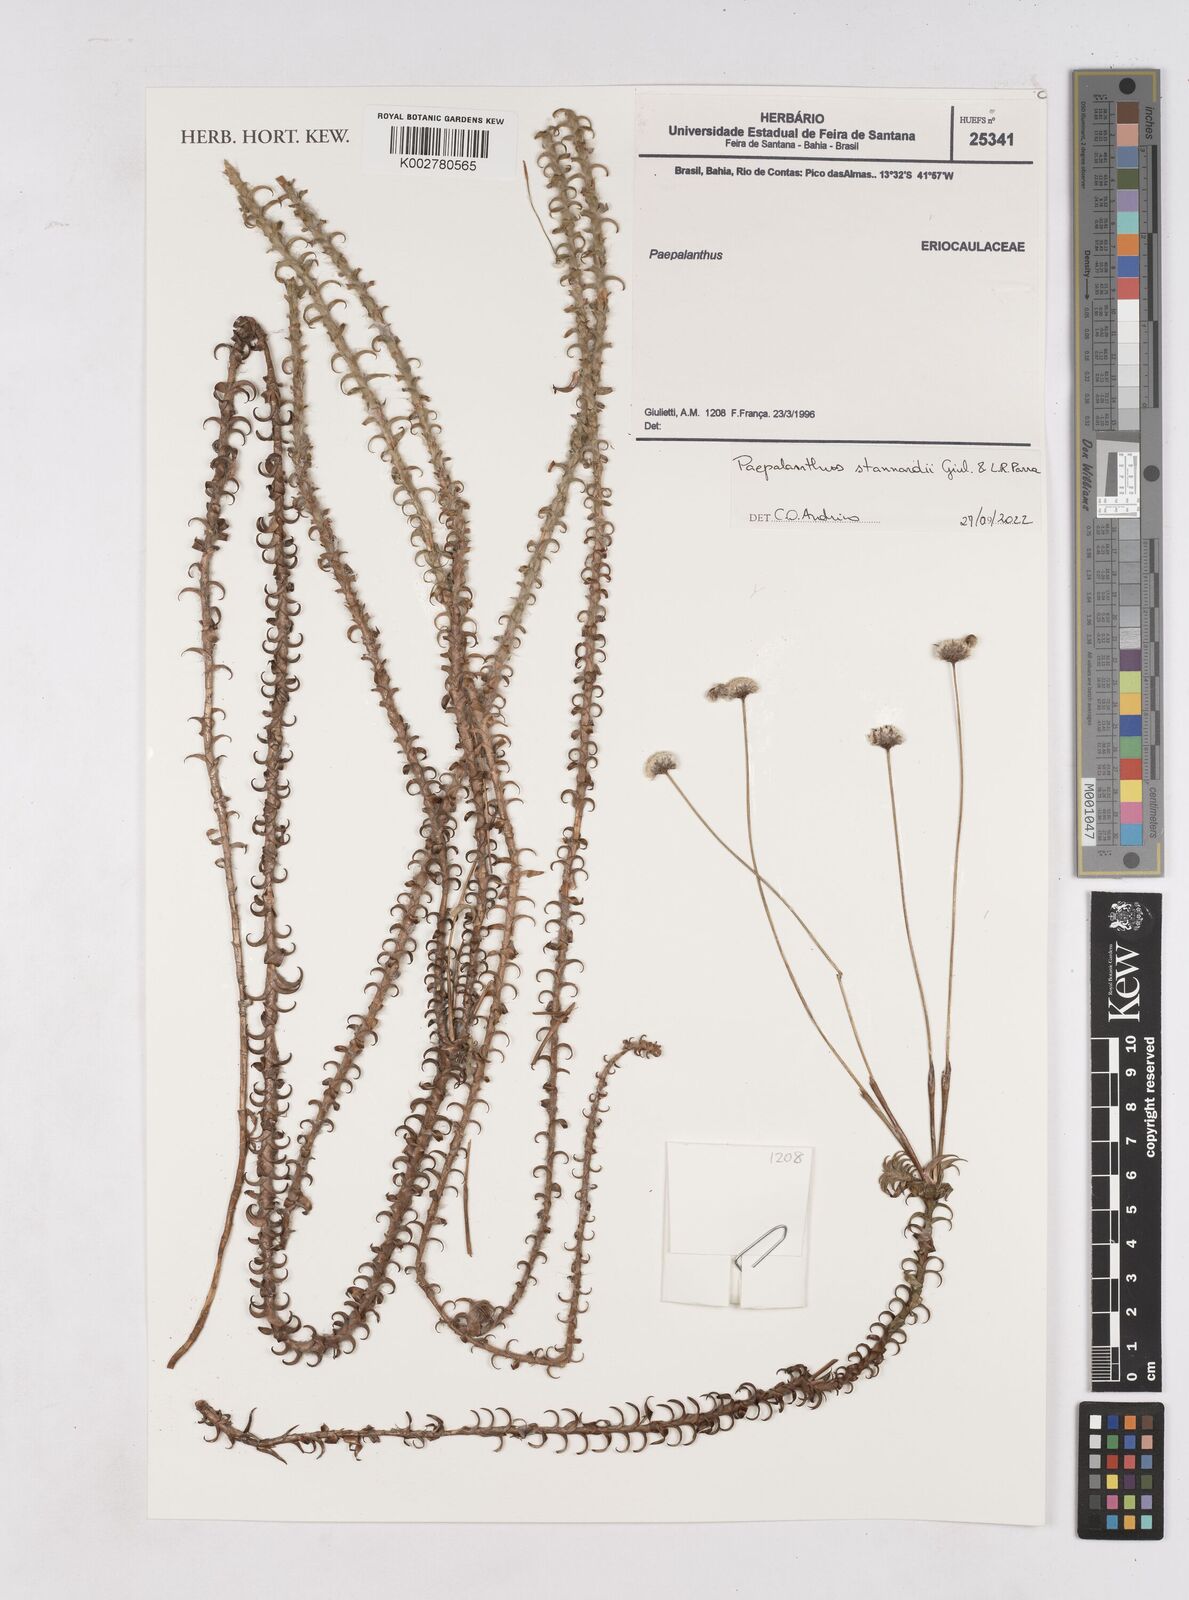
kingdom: Plantae
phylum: Tracheophyta
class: Liliopsida
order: Poales
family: Eriocaulaceae
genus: Paepalanthus
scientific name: Paepalanthus stannardii
